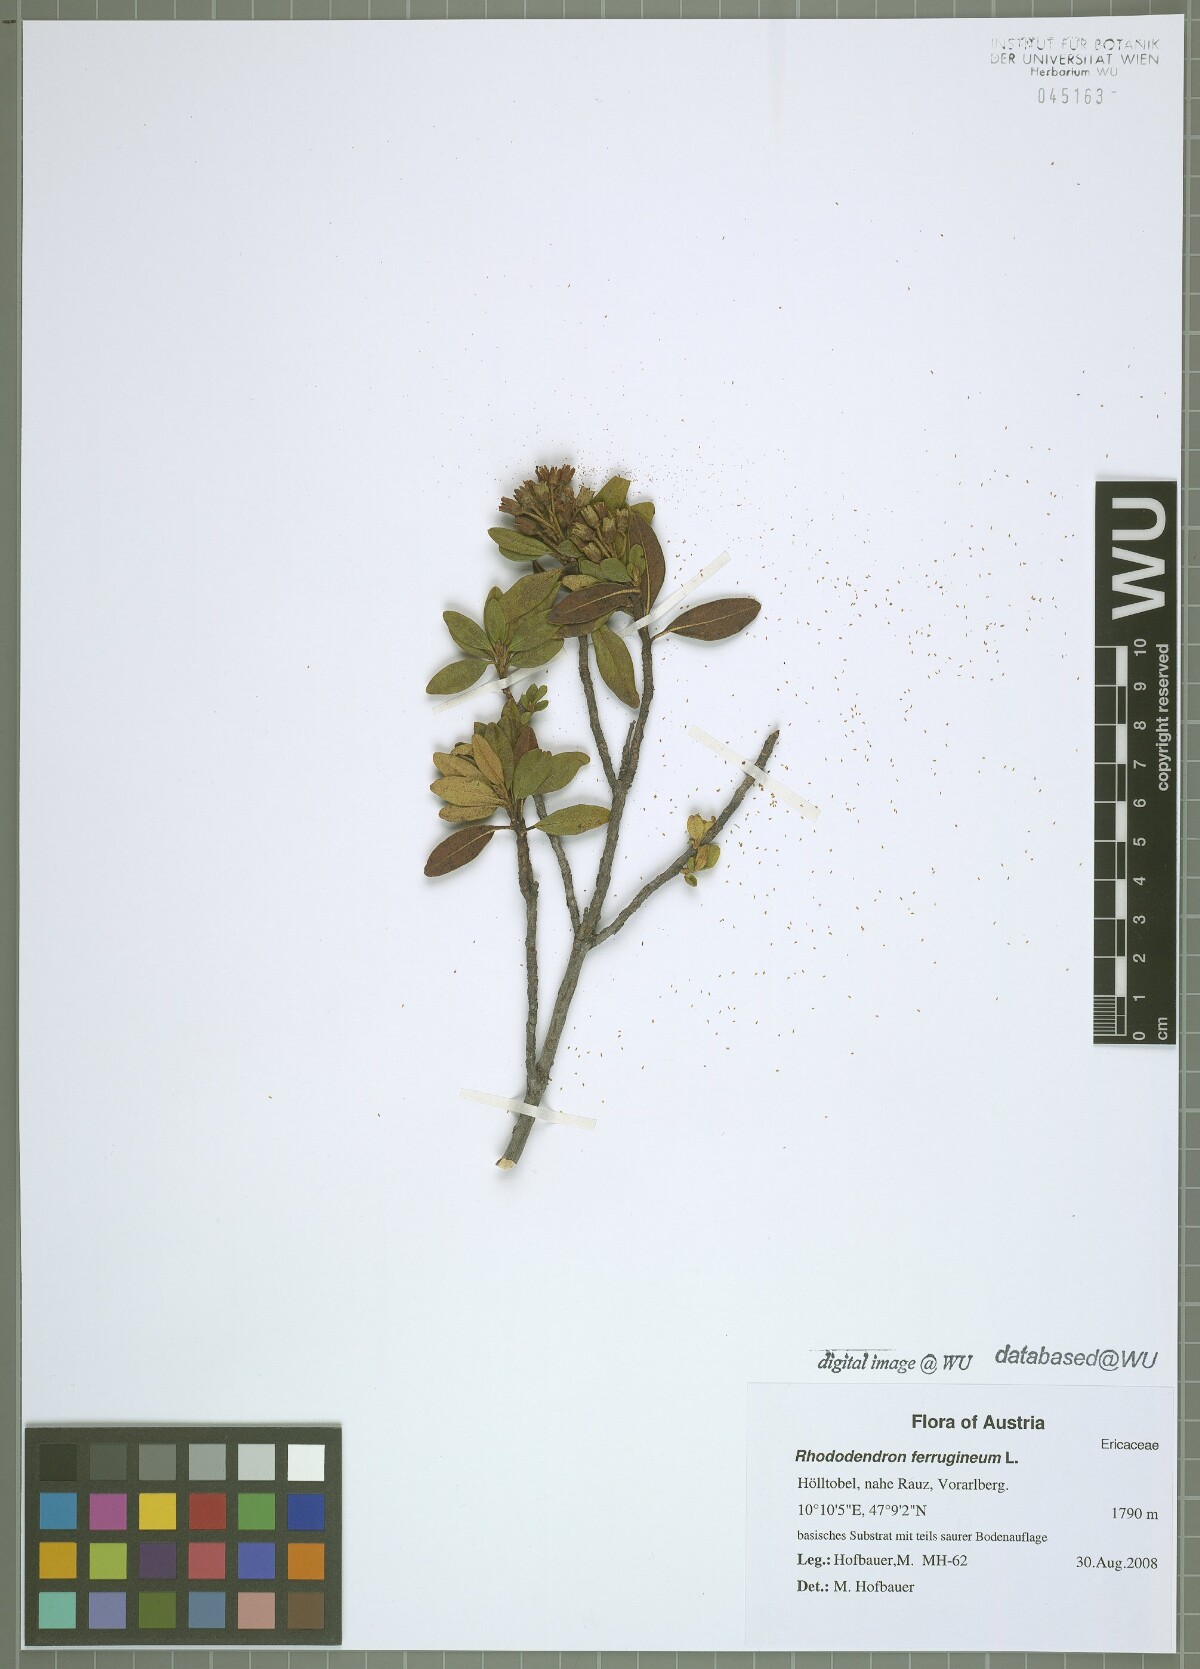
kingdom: Plantae
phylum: Tracheophyta
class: Magnoliopsida
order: Ericales
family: Ericaceae
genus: Rhododendron
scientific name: Rhododendron ferrugineum
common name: Alpenrose
